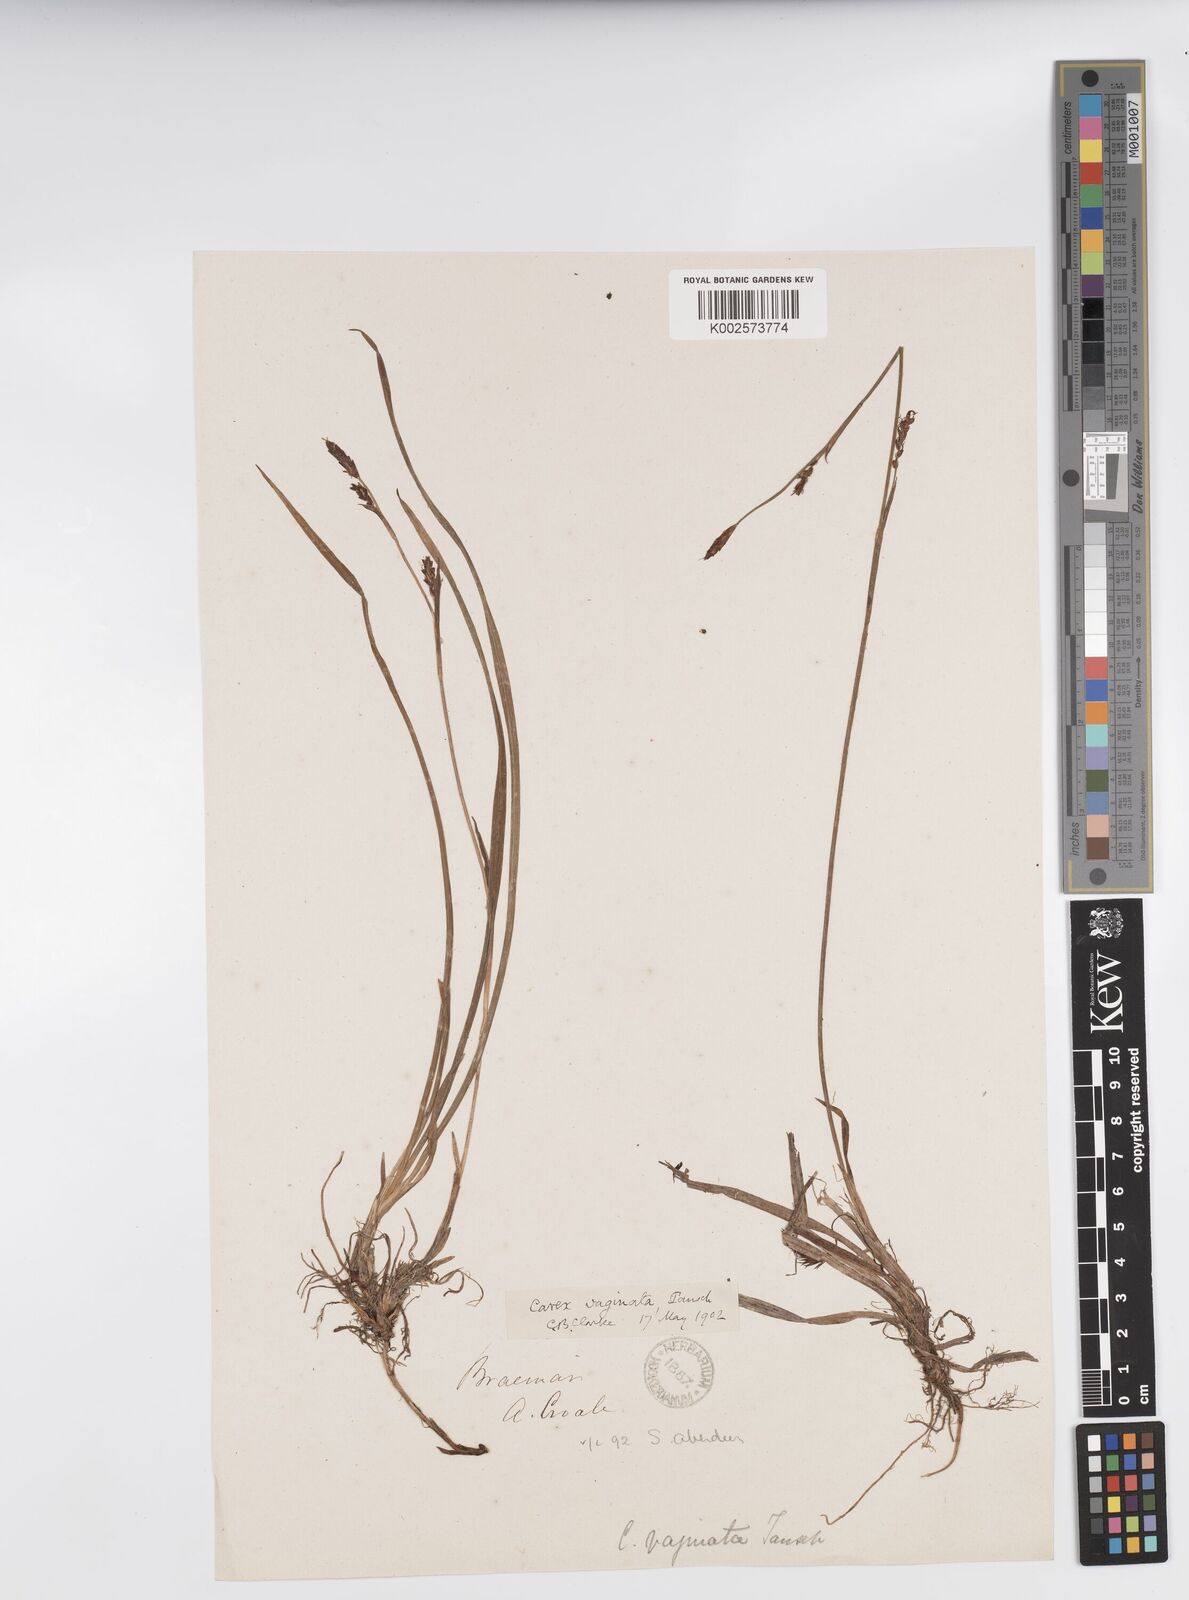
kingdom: Plantae
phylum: Tracheophyta
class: Liliopsida
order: Poales
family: Cyperaceae
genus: Carex
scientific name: Carex vaginata
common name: Sheathed sedge
